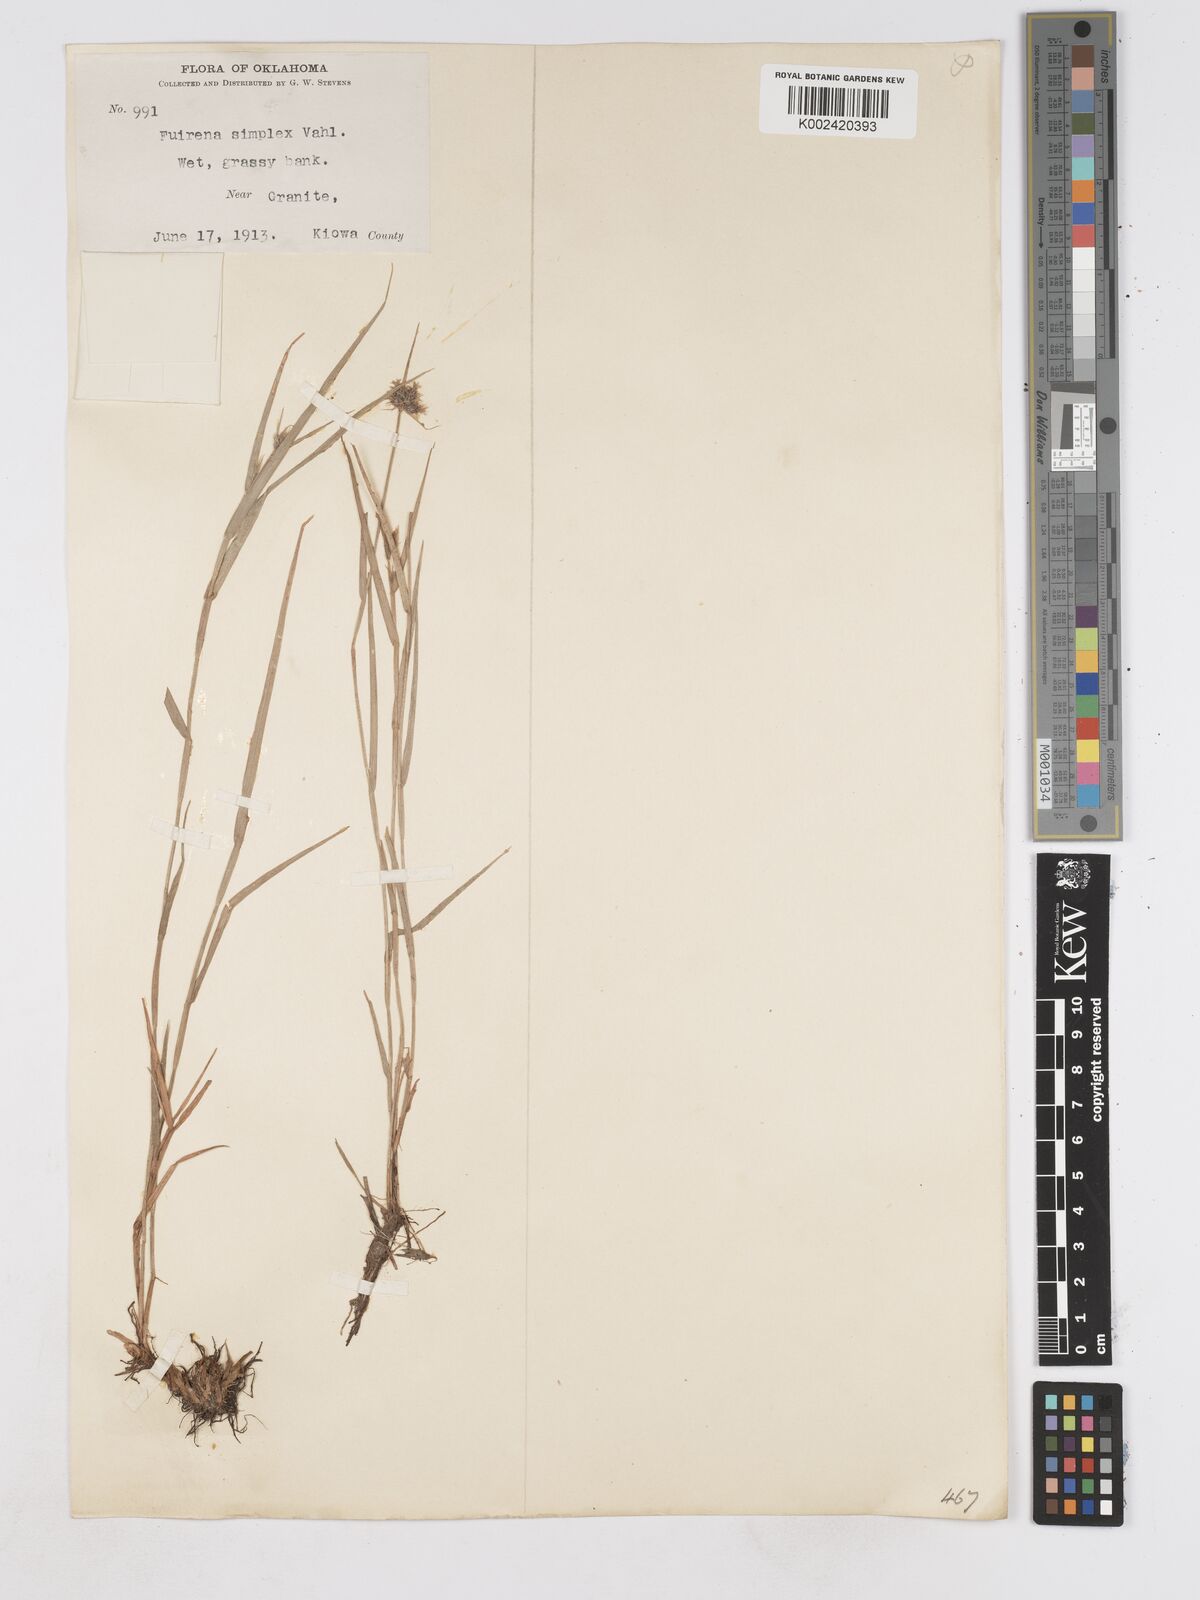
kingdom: Plantae
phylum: Tracheophyta
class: Liliopsida
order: Poales
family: Cyperaceae
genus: Fuirena
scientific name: Fuirena simplex
